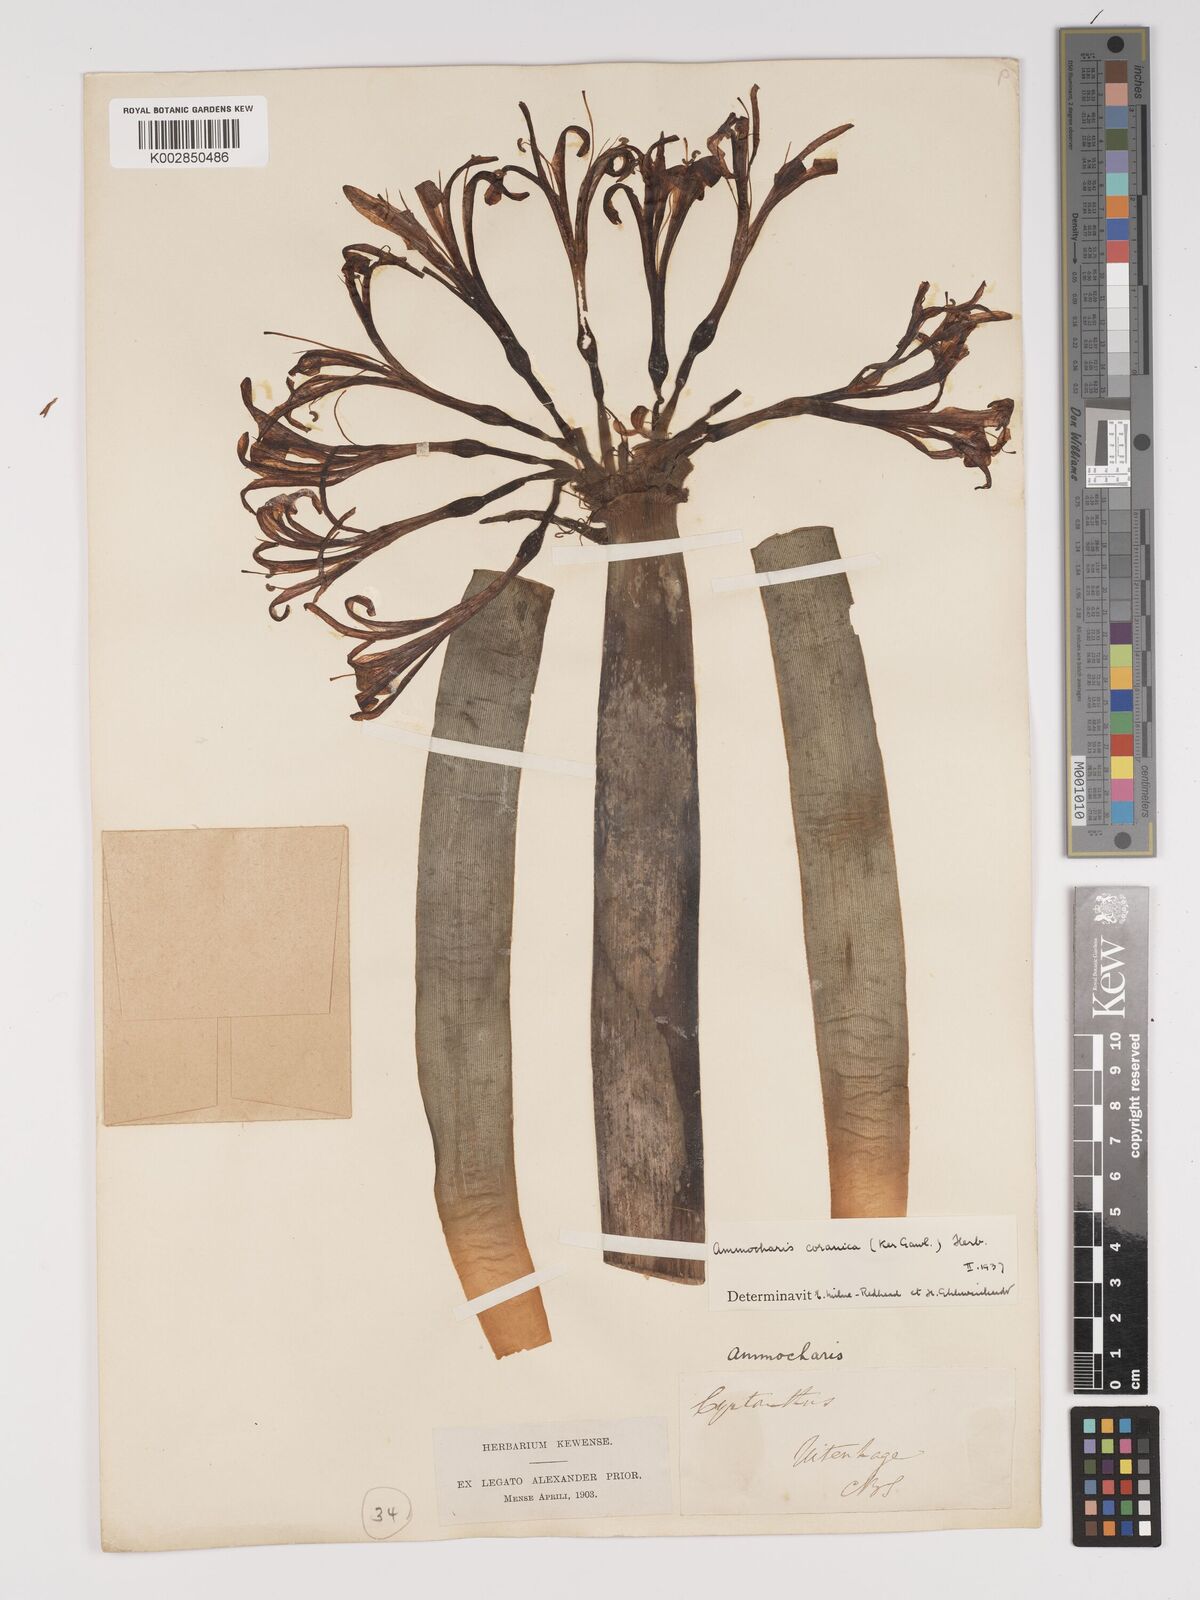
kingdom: Plantae
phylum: Tracheophyta
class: Liliopsida
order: Asparagales
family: Amaryllidaceae
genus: Ammocharis
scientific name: Ammocharis coranica
